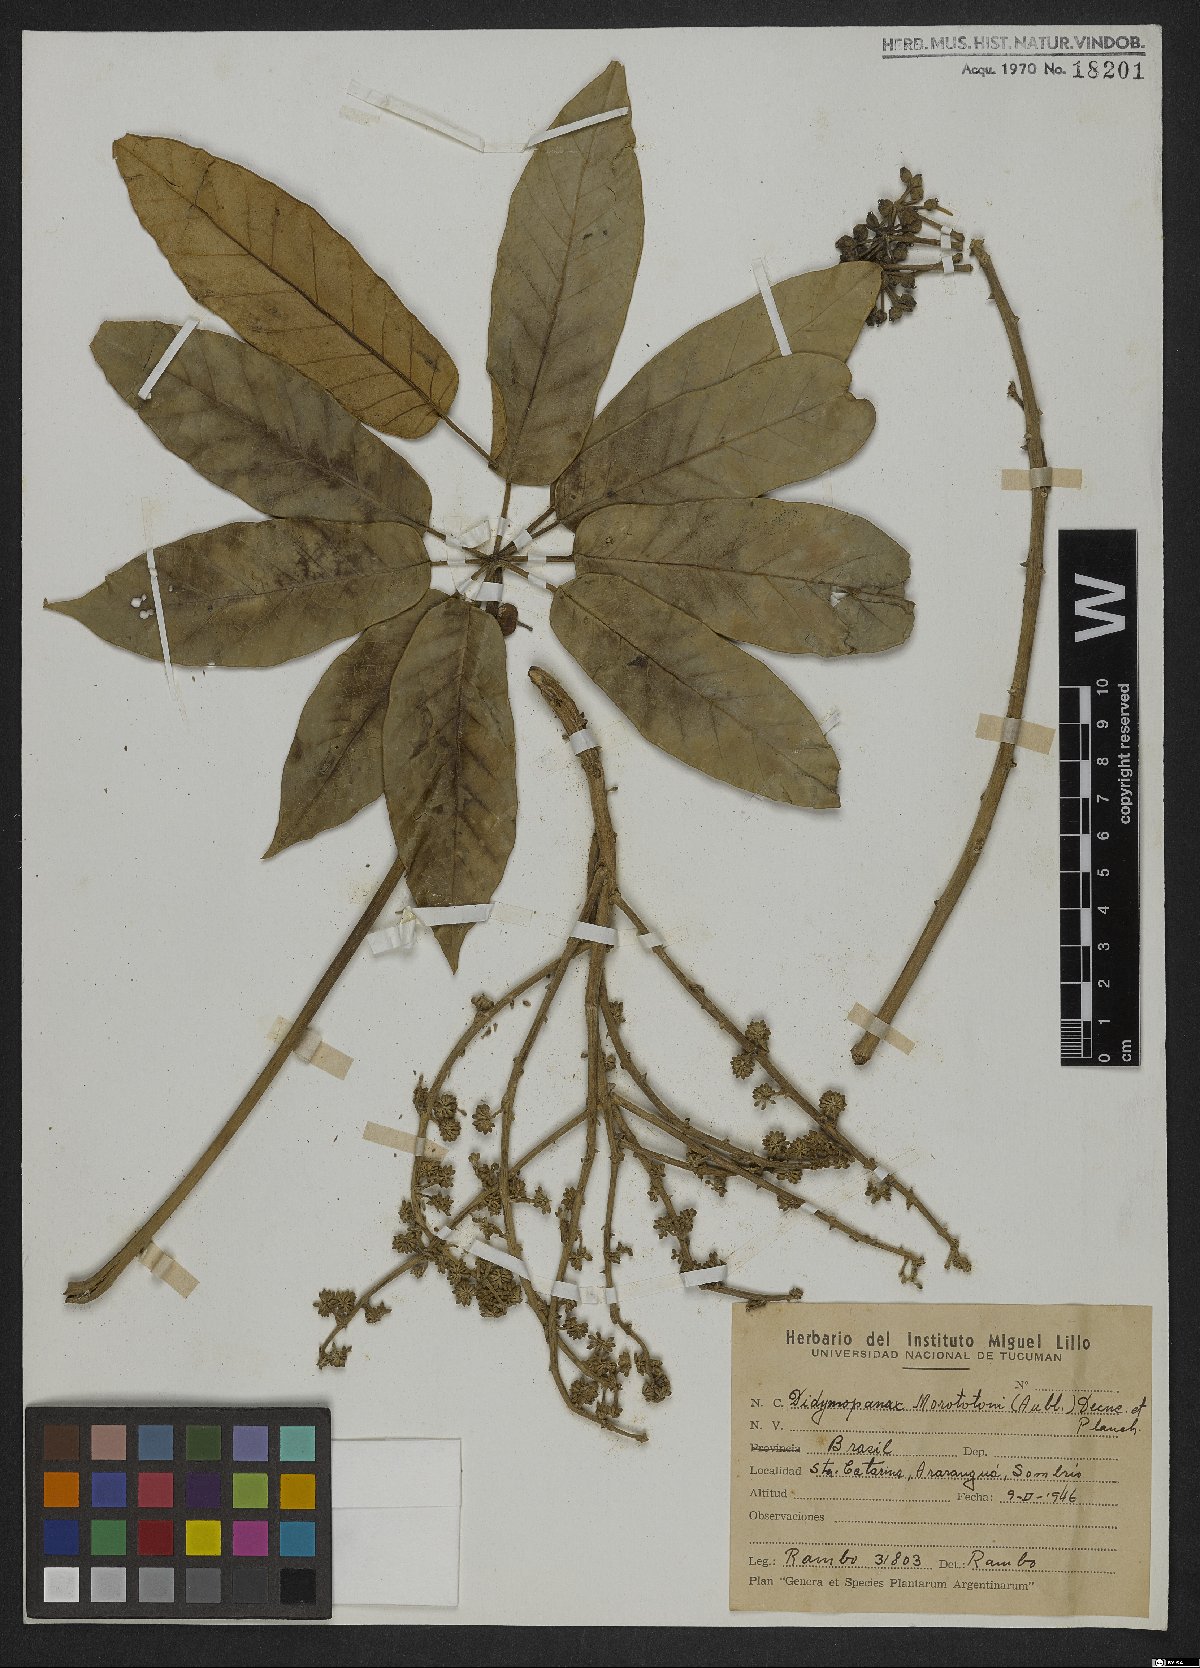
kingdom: Plantae
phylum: Tracheophyta
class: Magnoliopsida
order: Apiales
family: Araliaceae
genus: Didymopanax
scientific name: Didymopanax morototoni
